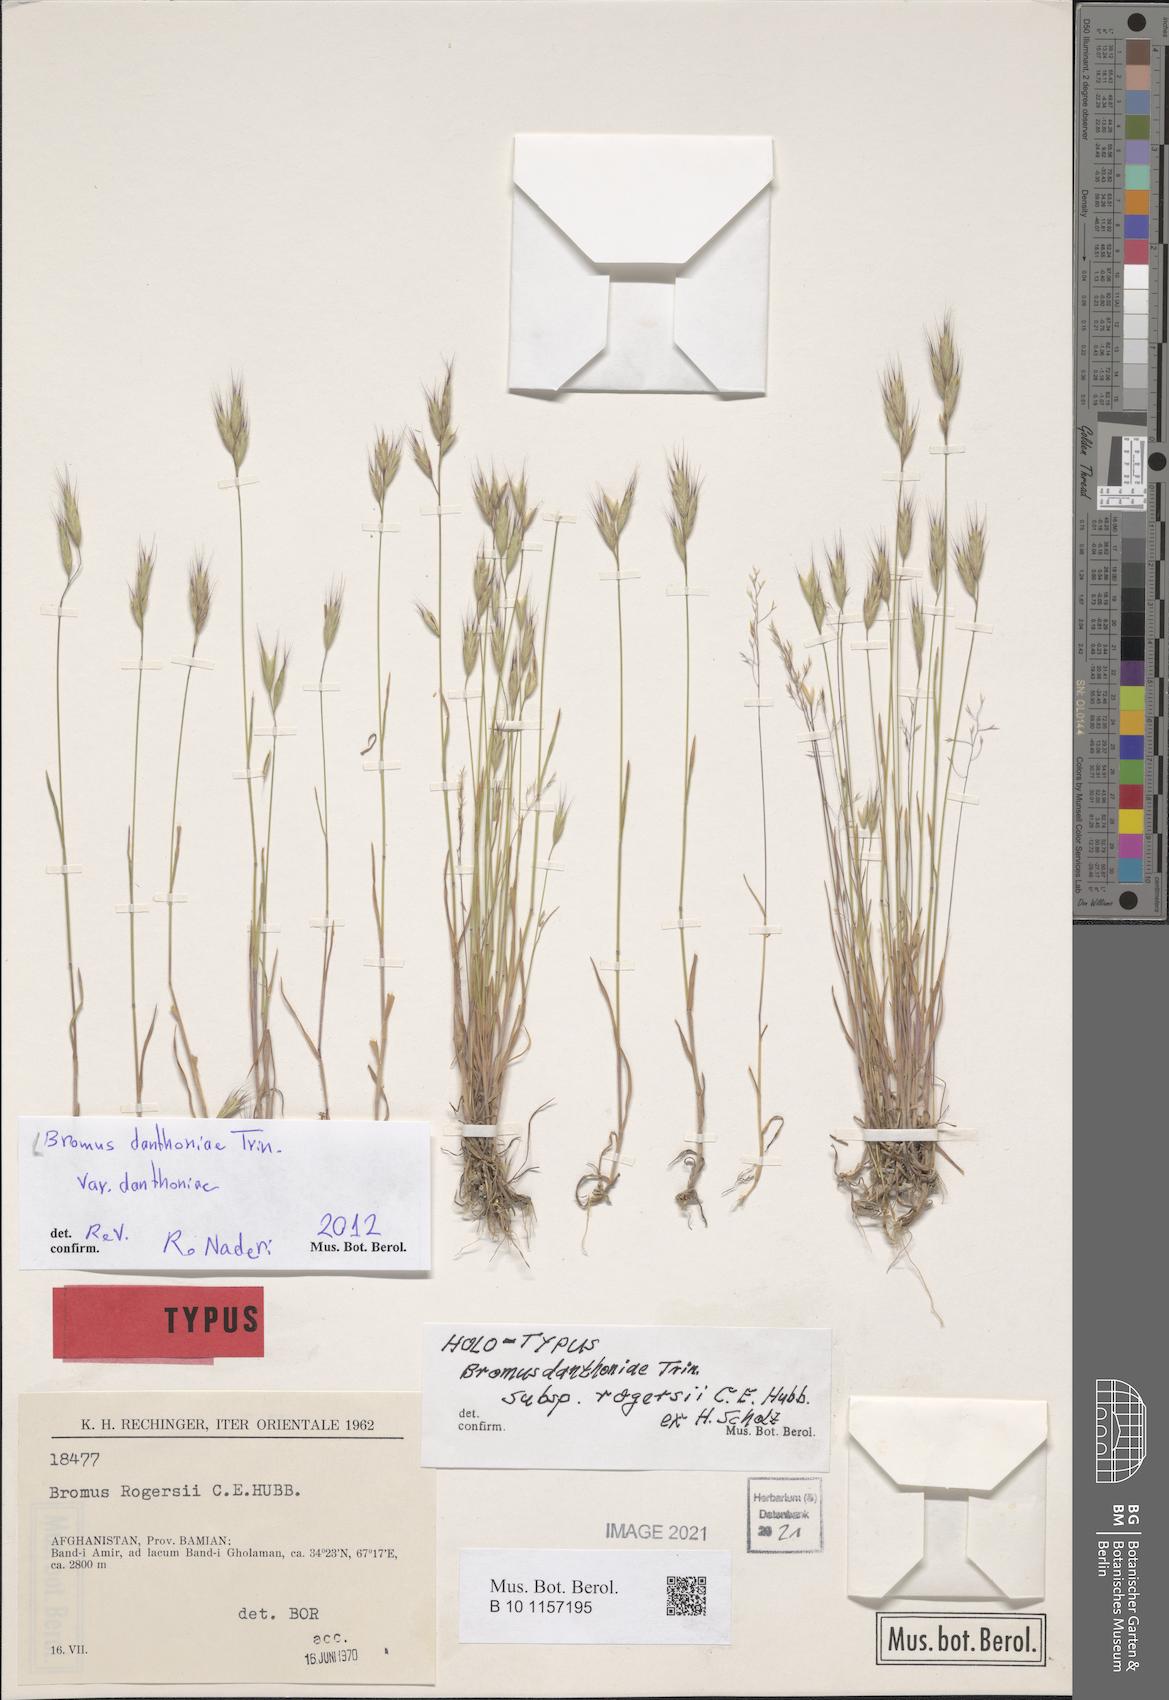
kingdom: Plantae
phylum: Tracheophyta
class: Liliopsida
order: Poales
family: Poaceae
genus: Bromus
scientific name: Bromus danthoniae
